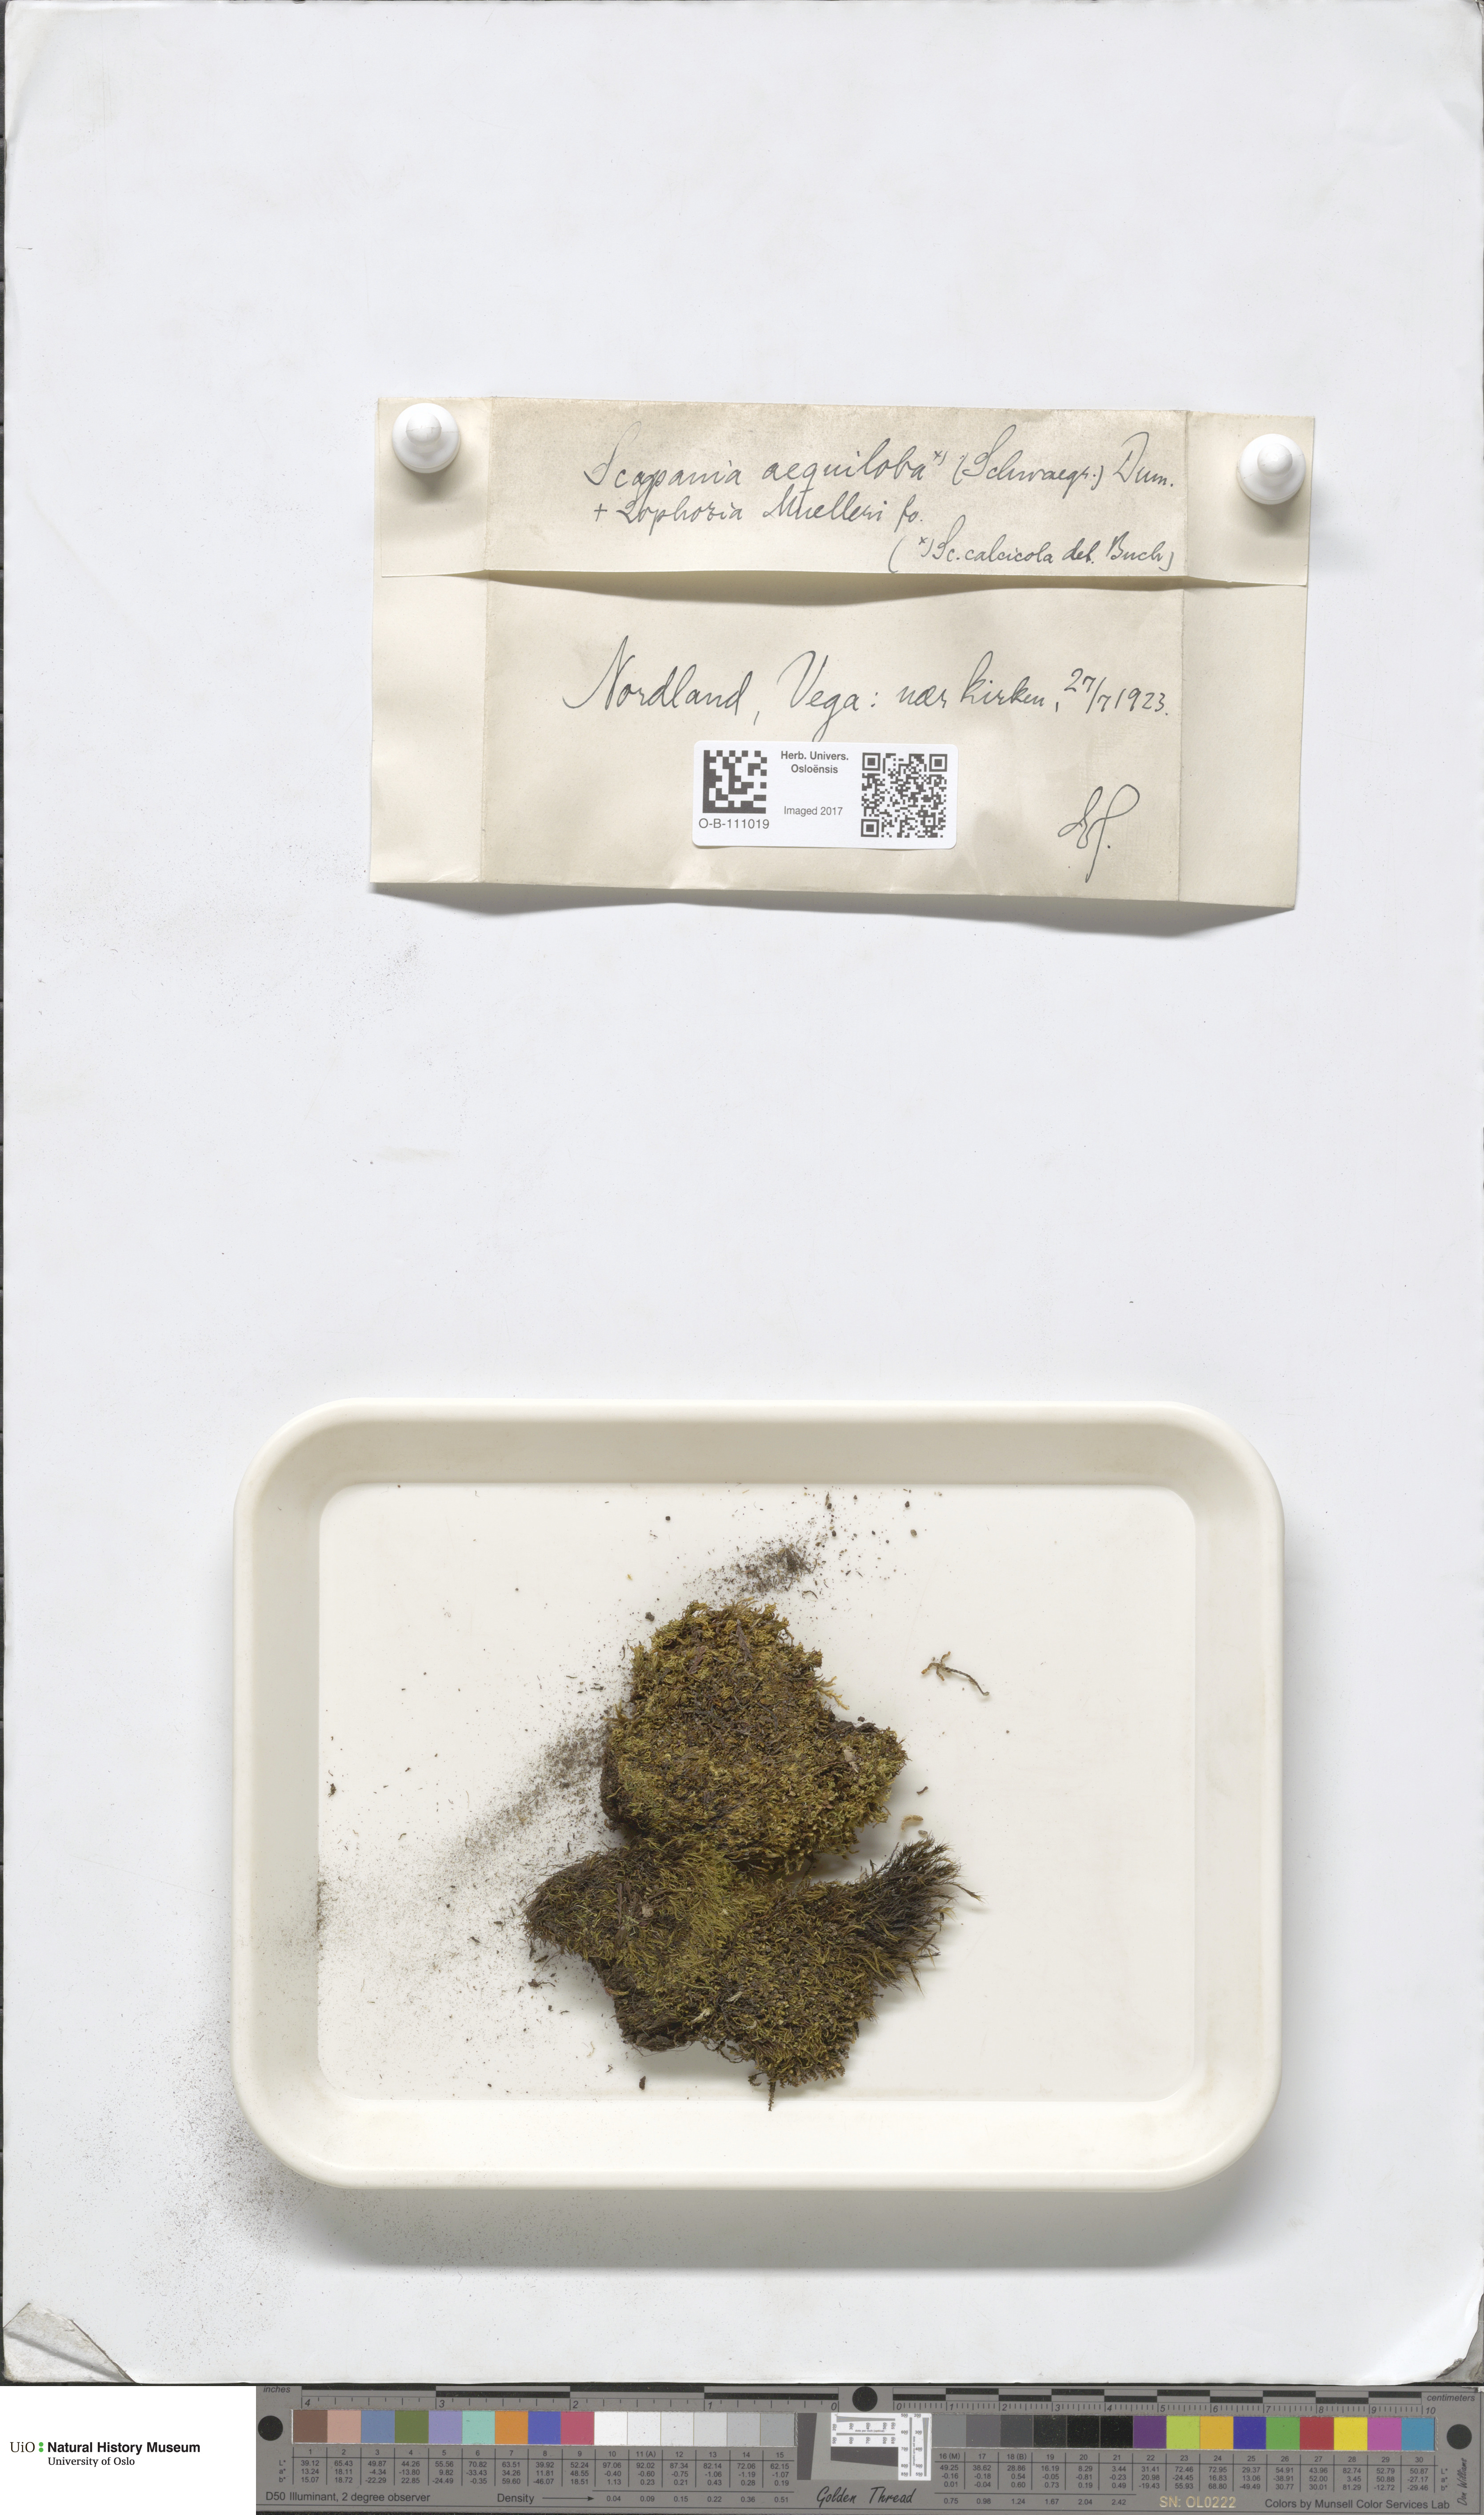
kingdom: Plantae
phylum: Marchantiophyta
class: Jungermanniopsida
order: Jungermanniales
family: Scapaniaceae
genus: Scapania
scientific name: Scapania calcicola
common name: Calcicolous earwort
